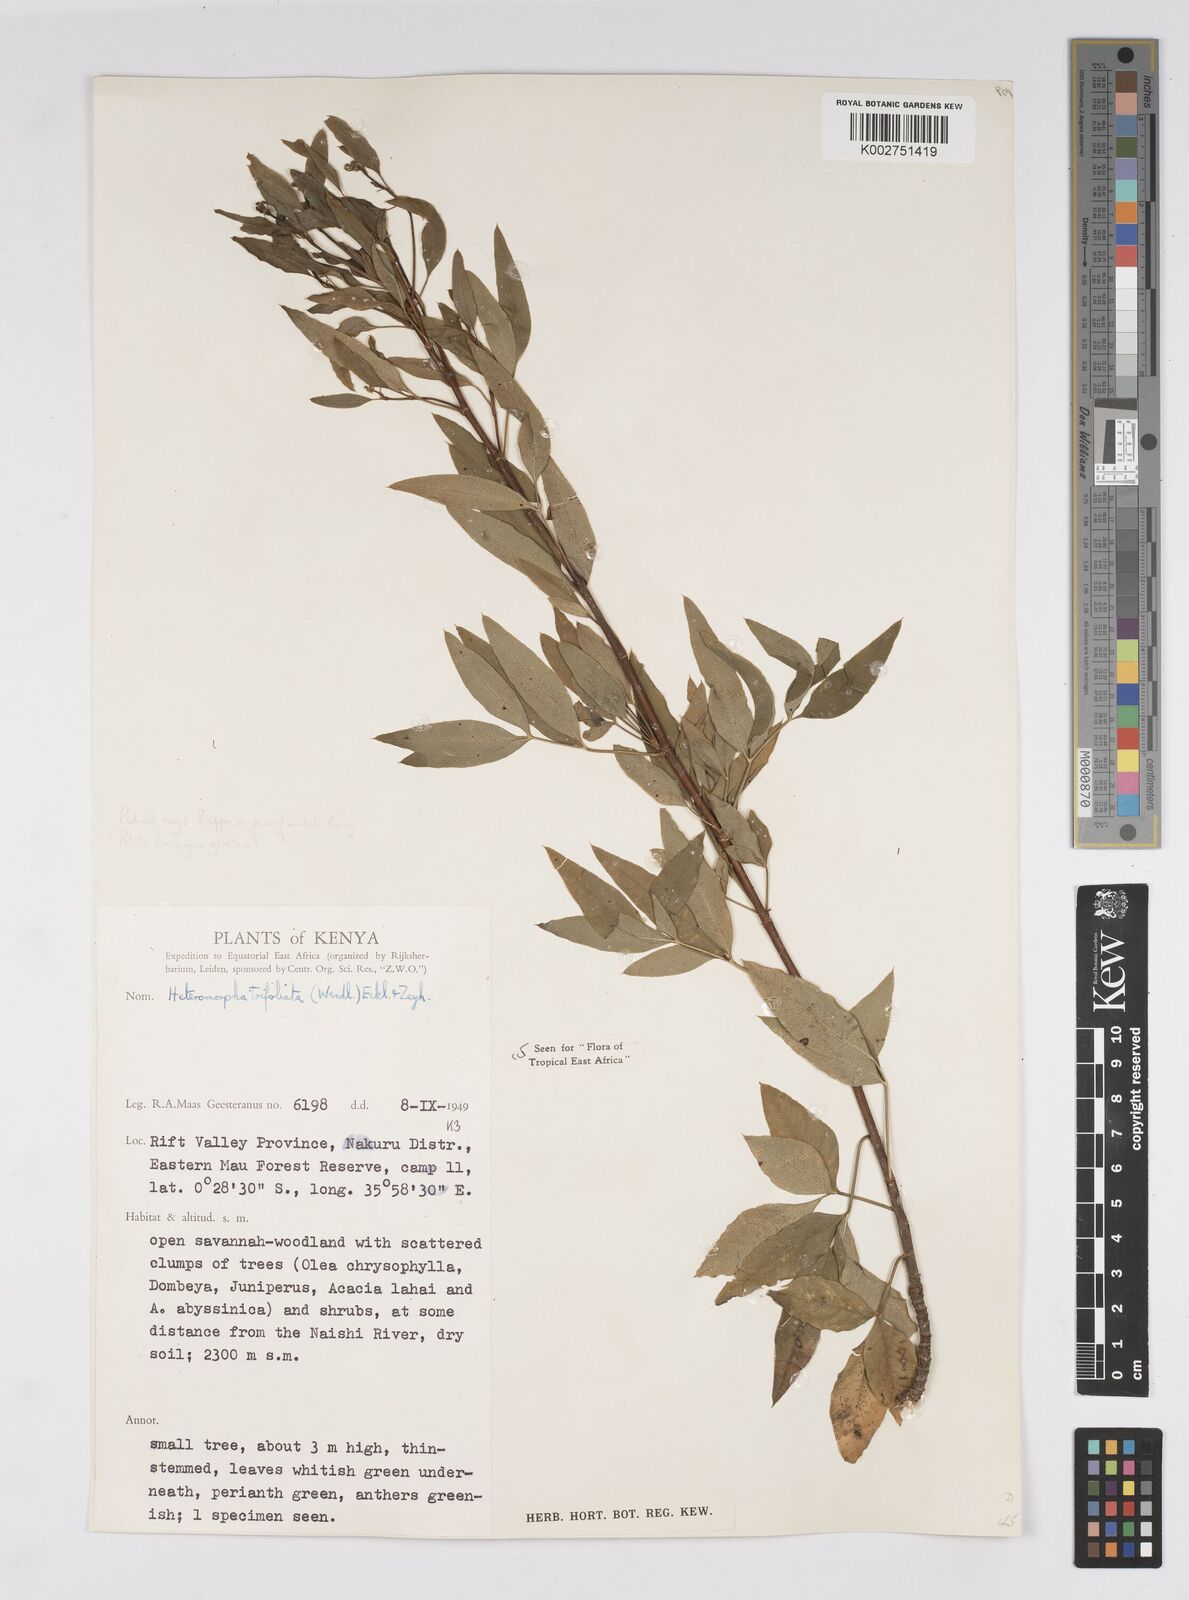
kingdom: Plantae
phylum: Tracheophyta
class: Magnoliopsida
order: Apiales
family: Apiaceae
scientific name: Apiaceae
